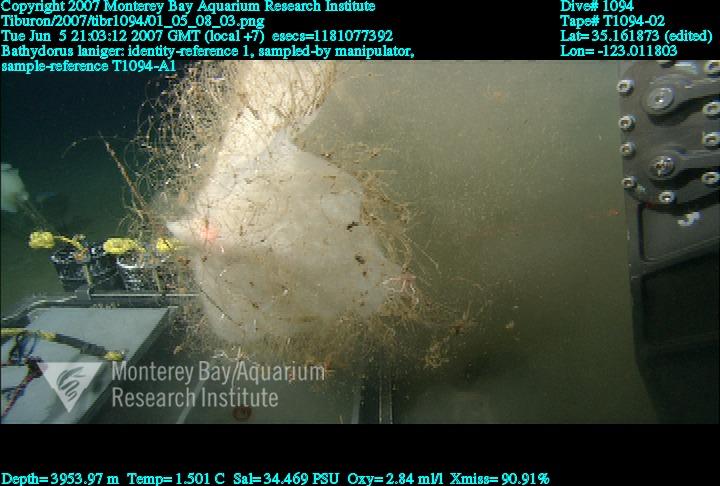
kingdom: Animalia
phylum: Porifera
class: Hexactinellida
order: Lyssacinosida
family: Rossellidae
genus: Bathydorus
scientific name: Bathydorus laniger
